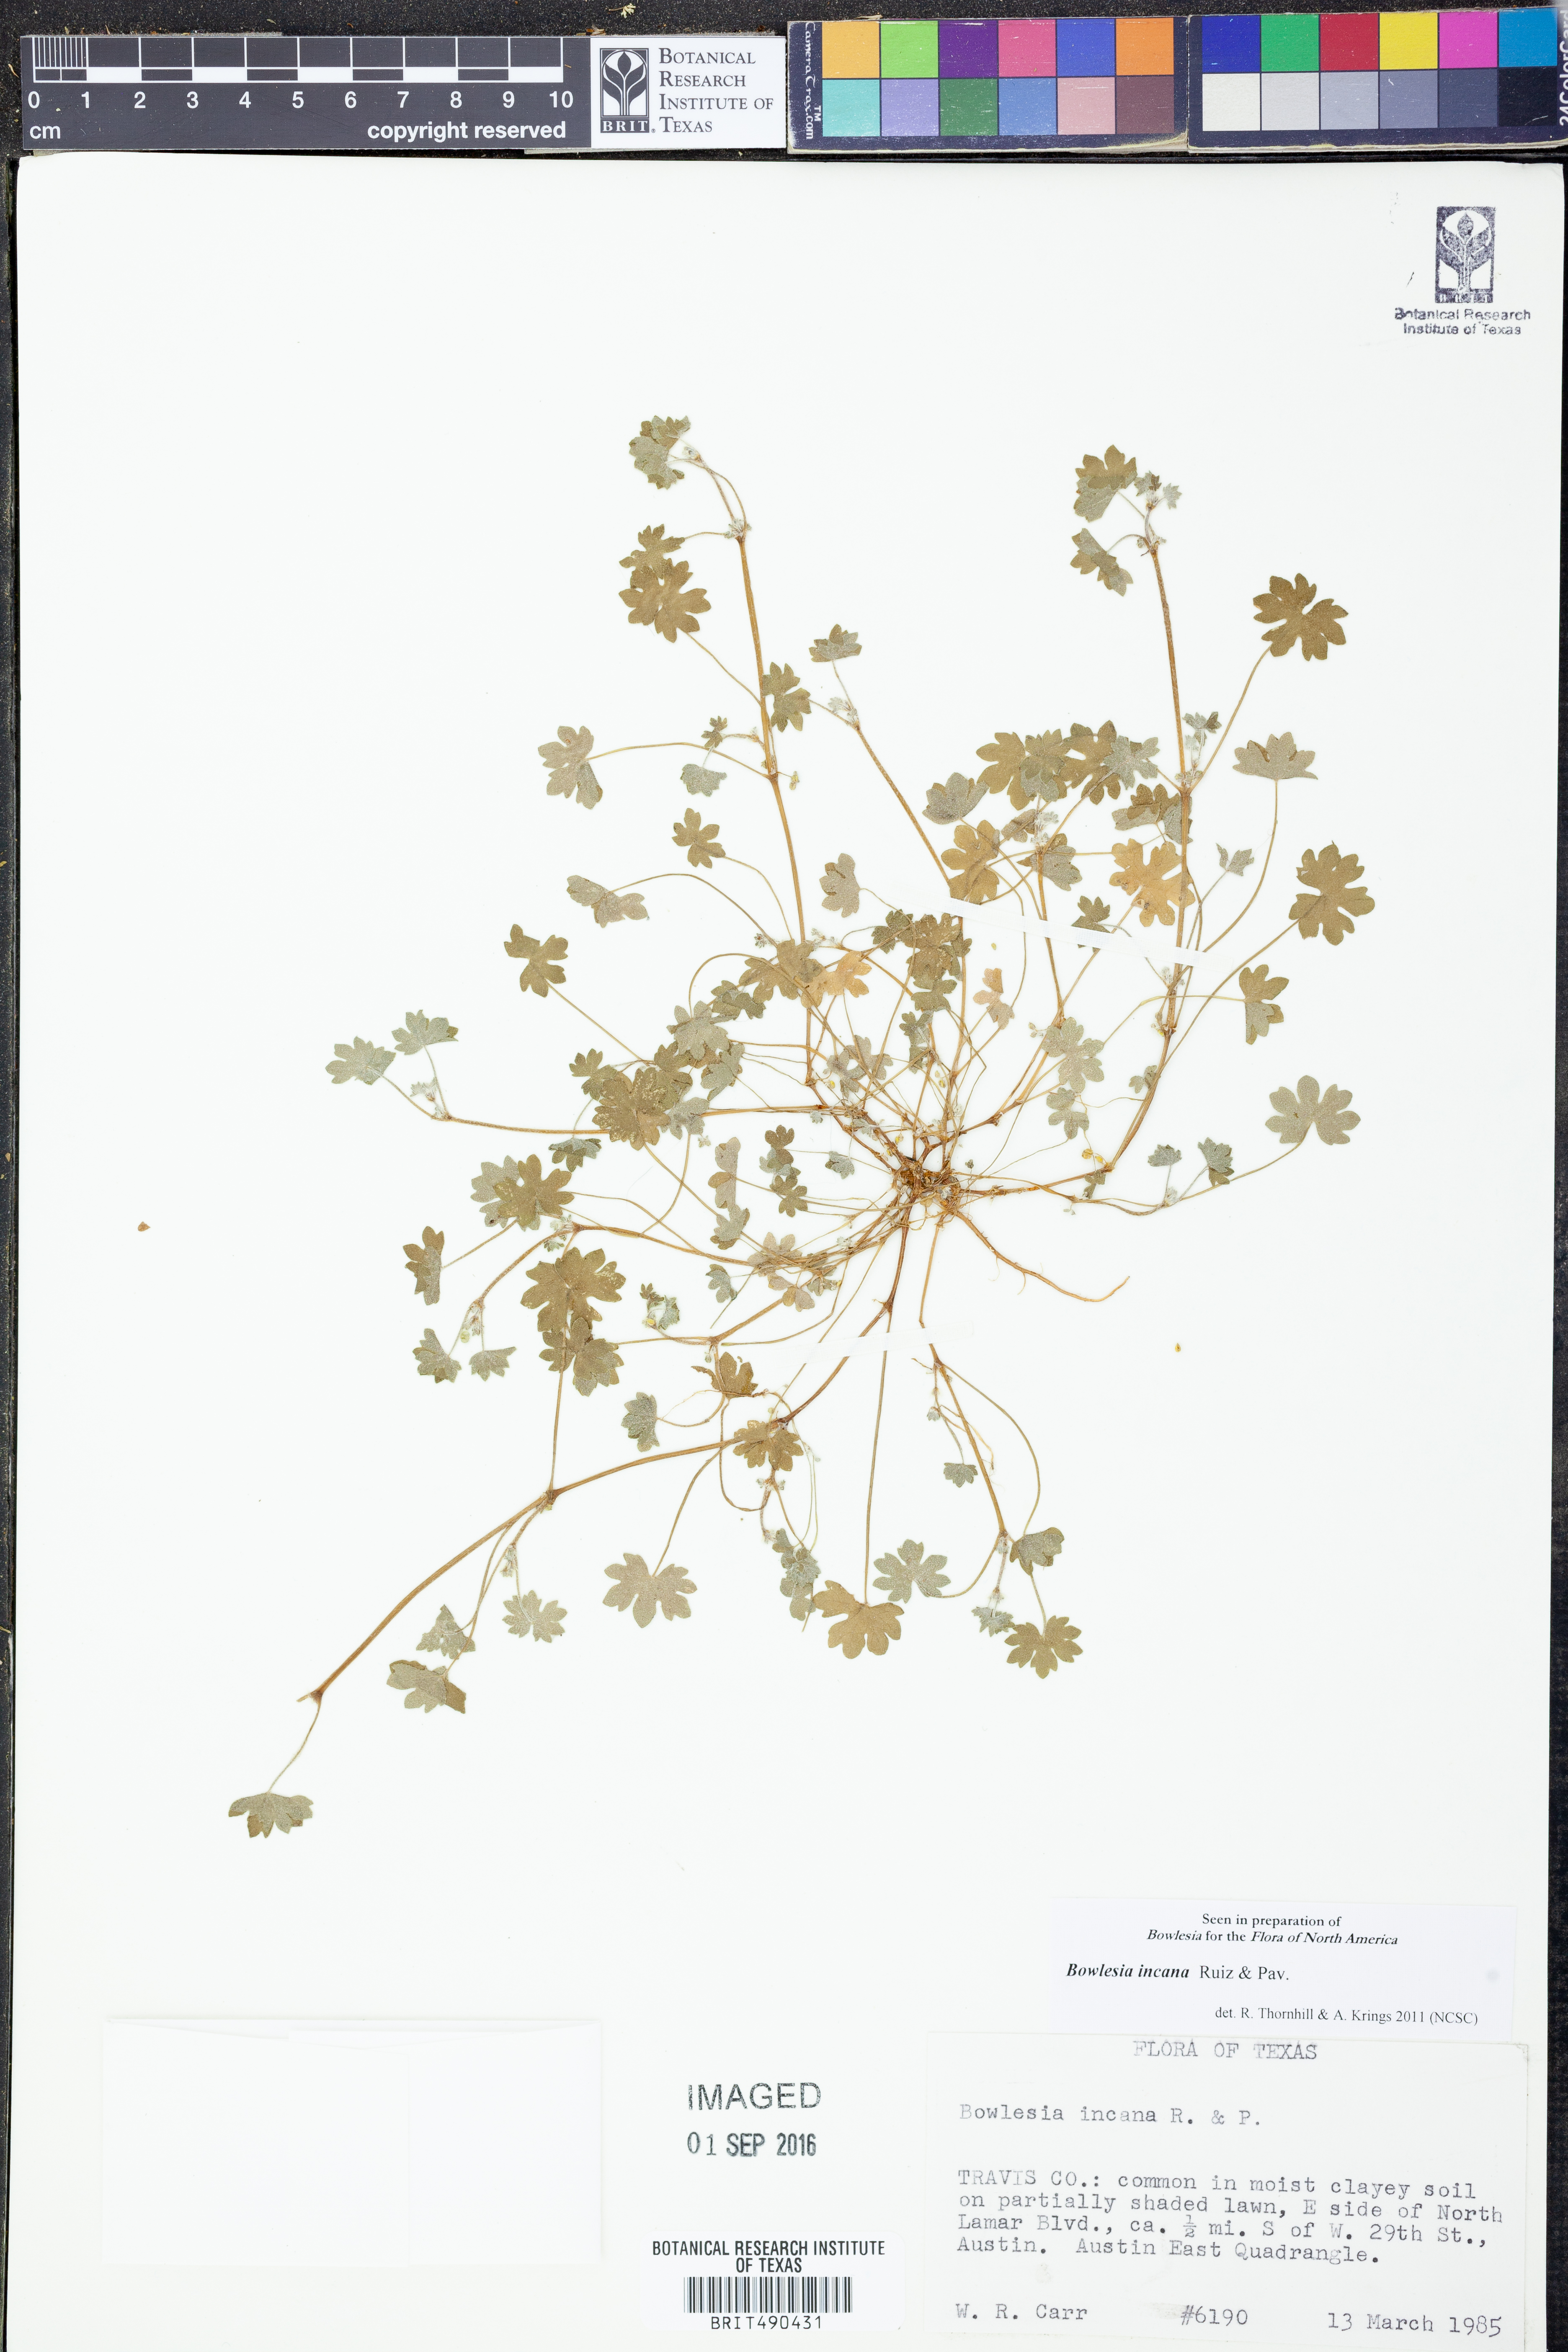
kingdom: Plantae
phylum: Tracheophyta
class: Magnoliopsida
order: Apiales
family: Apiaceae
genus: Bowlesia
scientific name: Bowlesia incana
